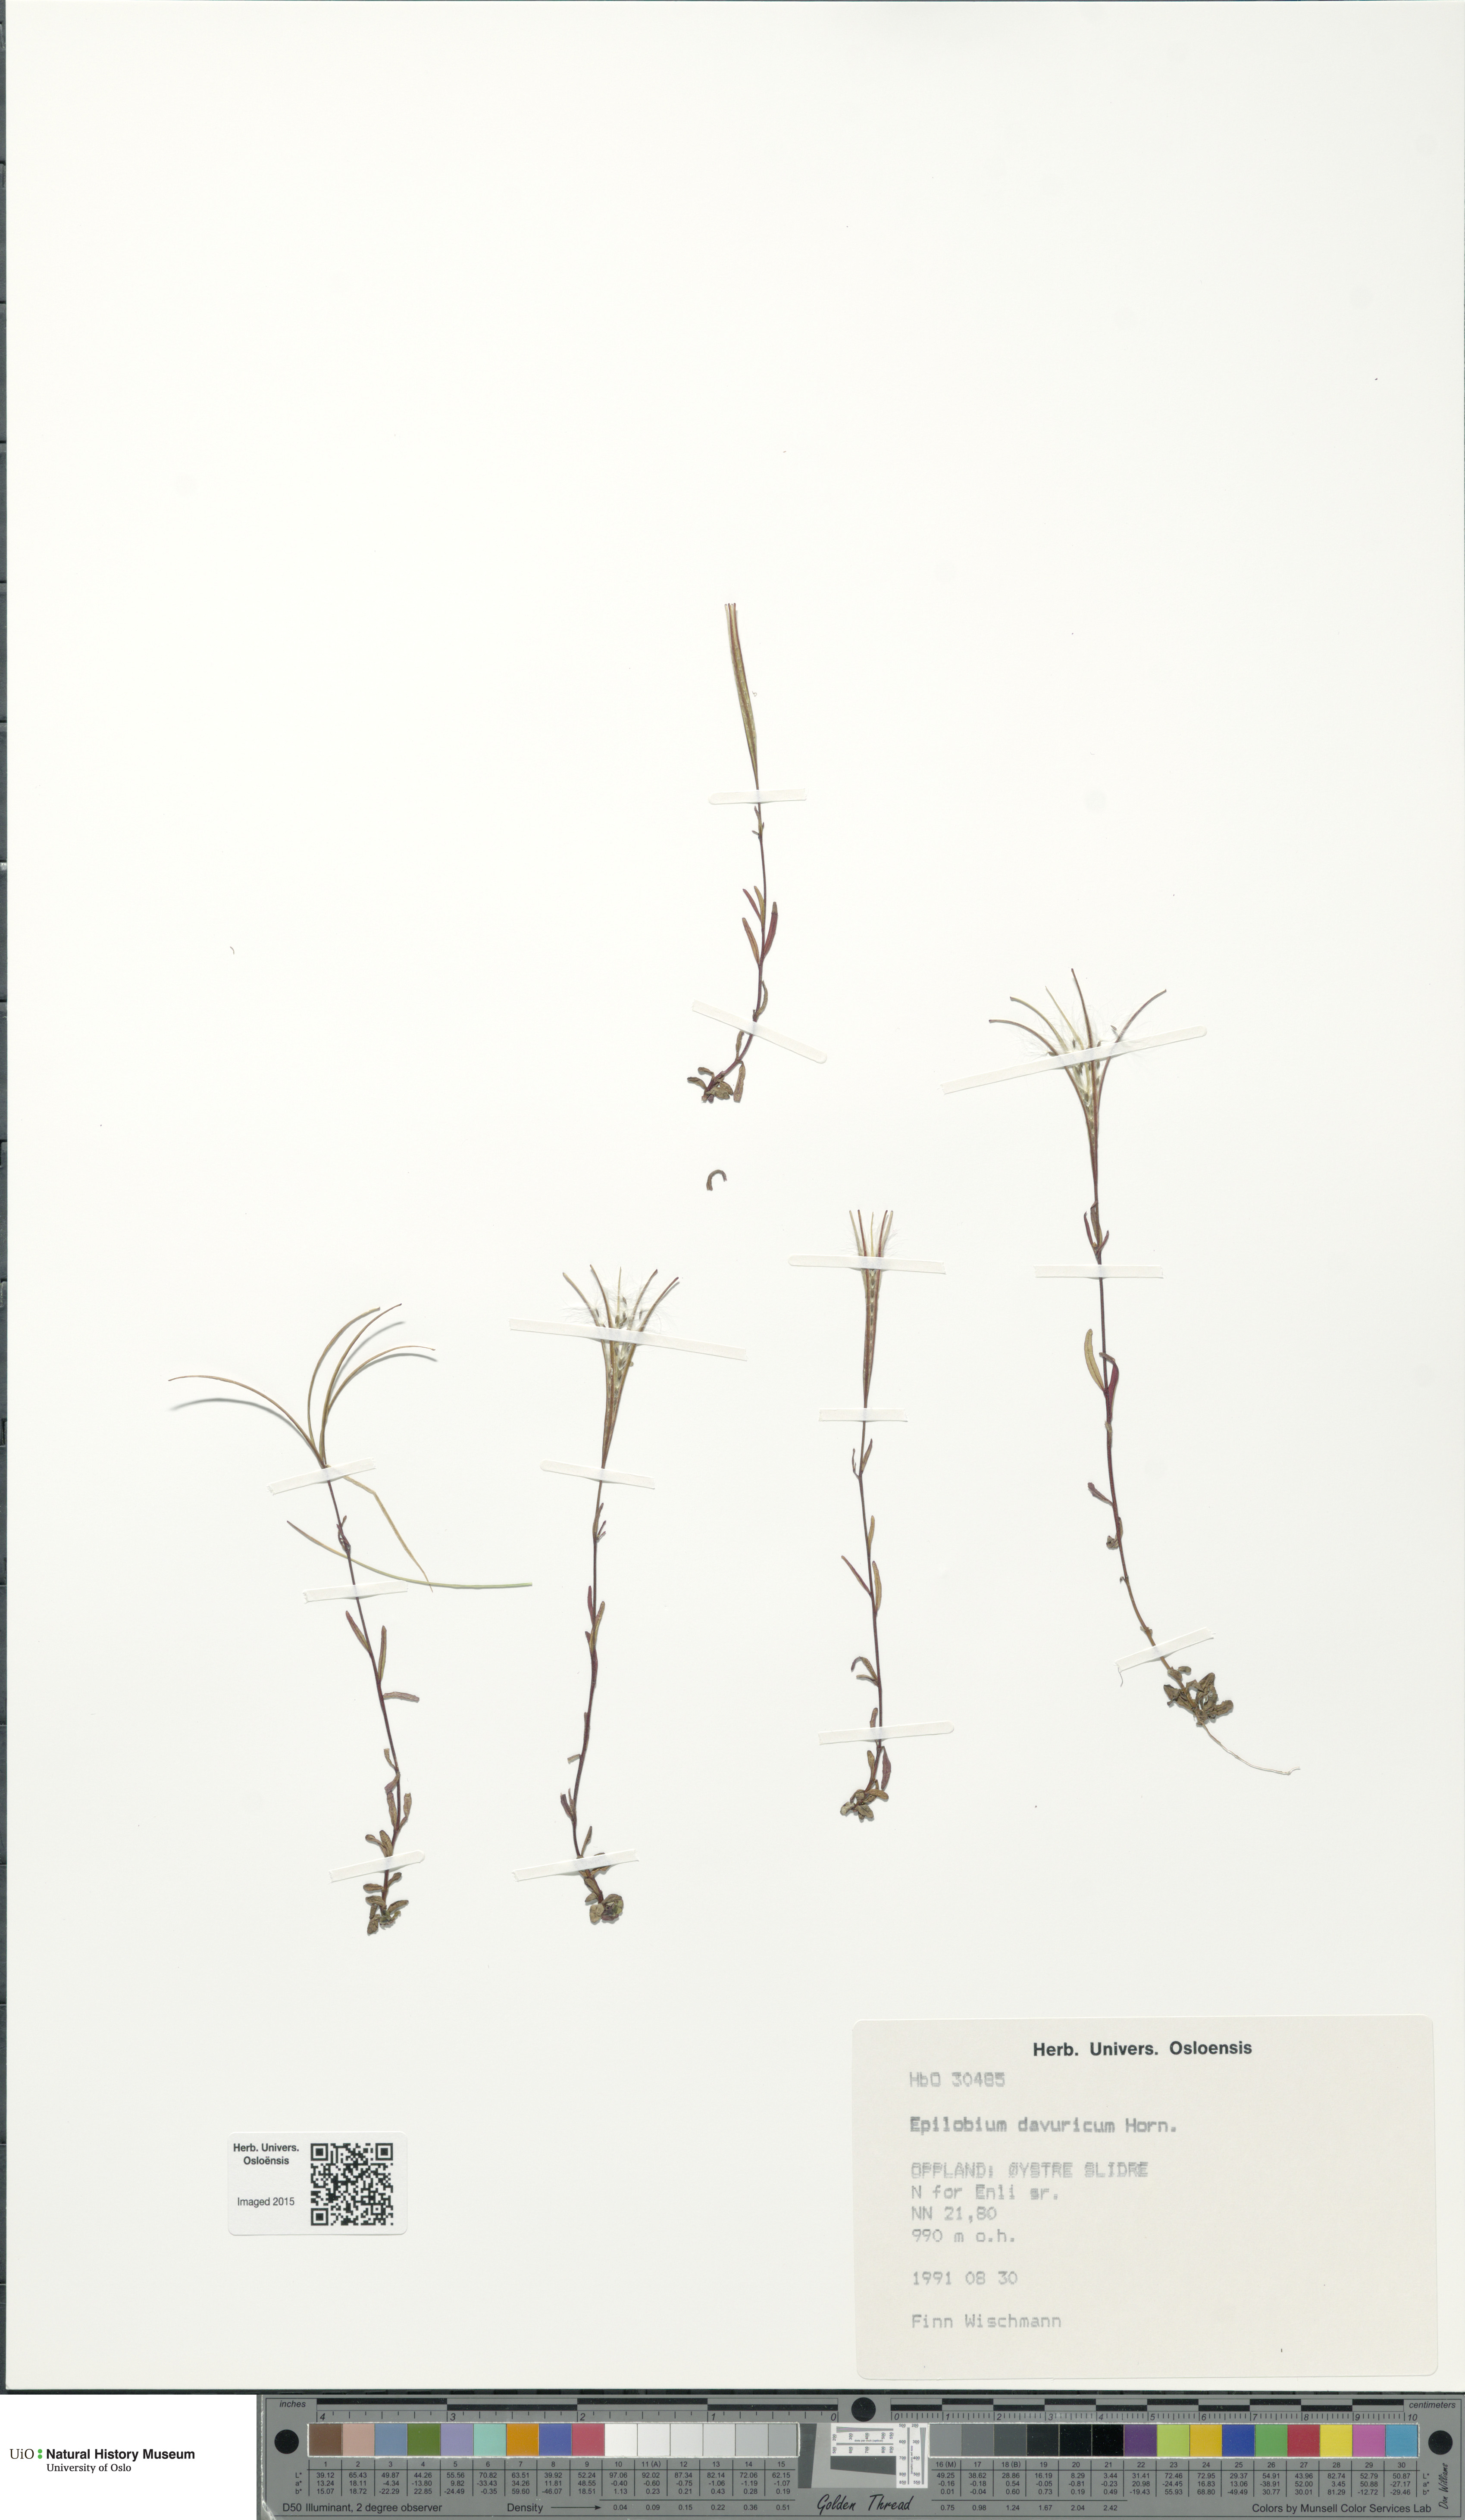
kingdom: Plantae
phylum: Tracheophyta
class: Magnoliopsida
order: Myrtales
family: Onagraceae
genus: Epilobium
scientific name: Epilobium davuricum
